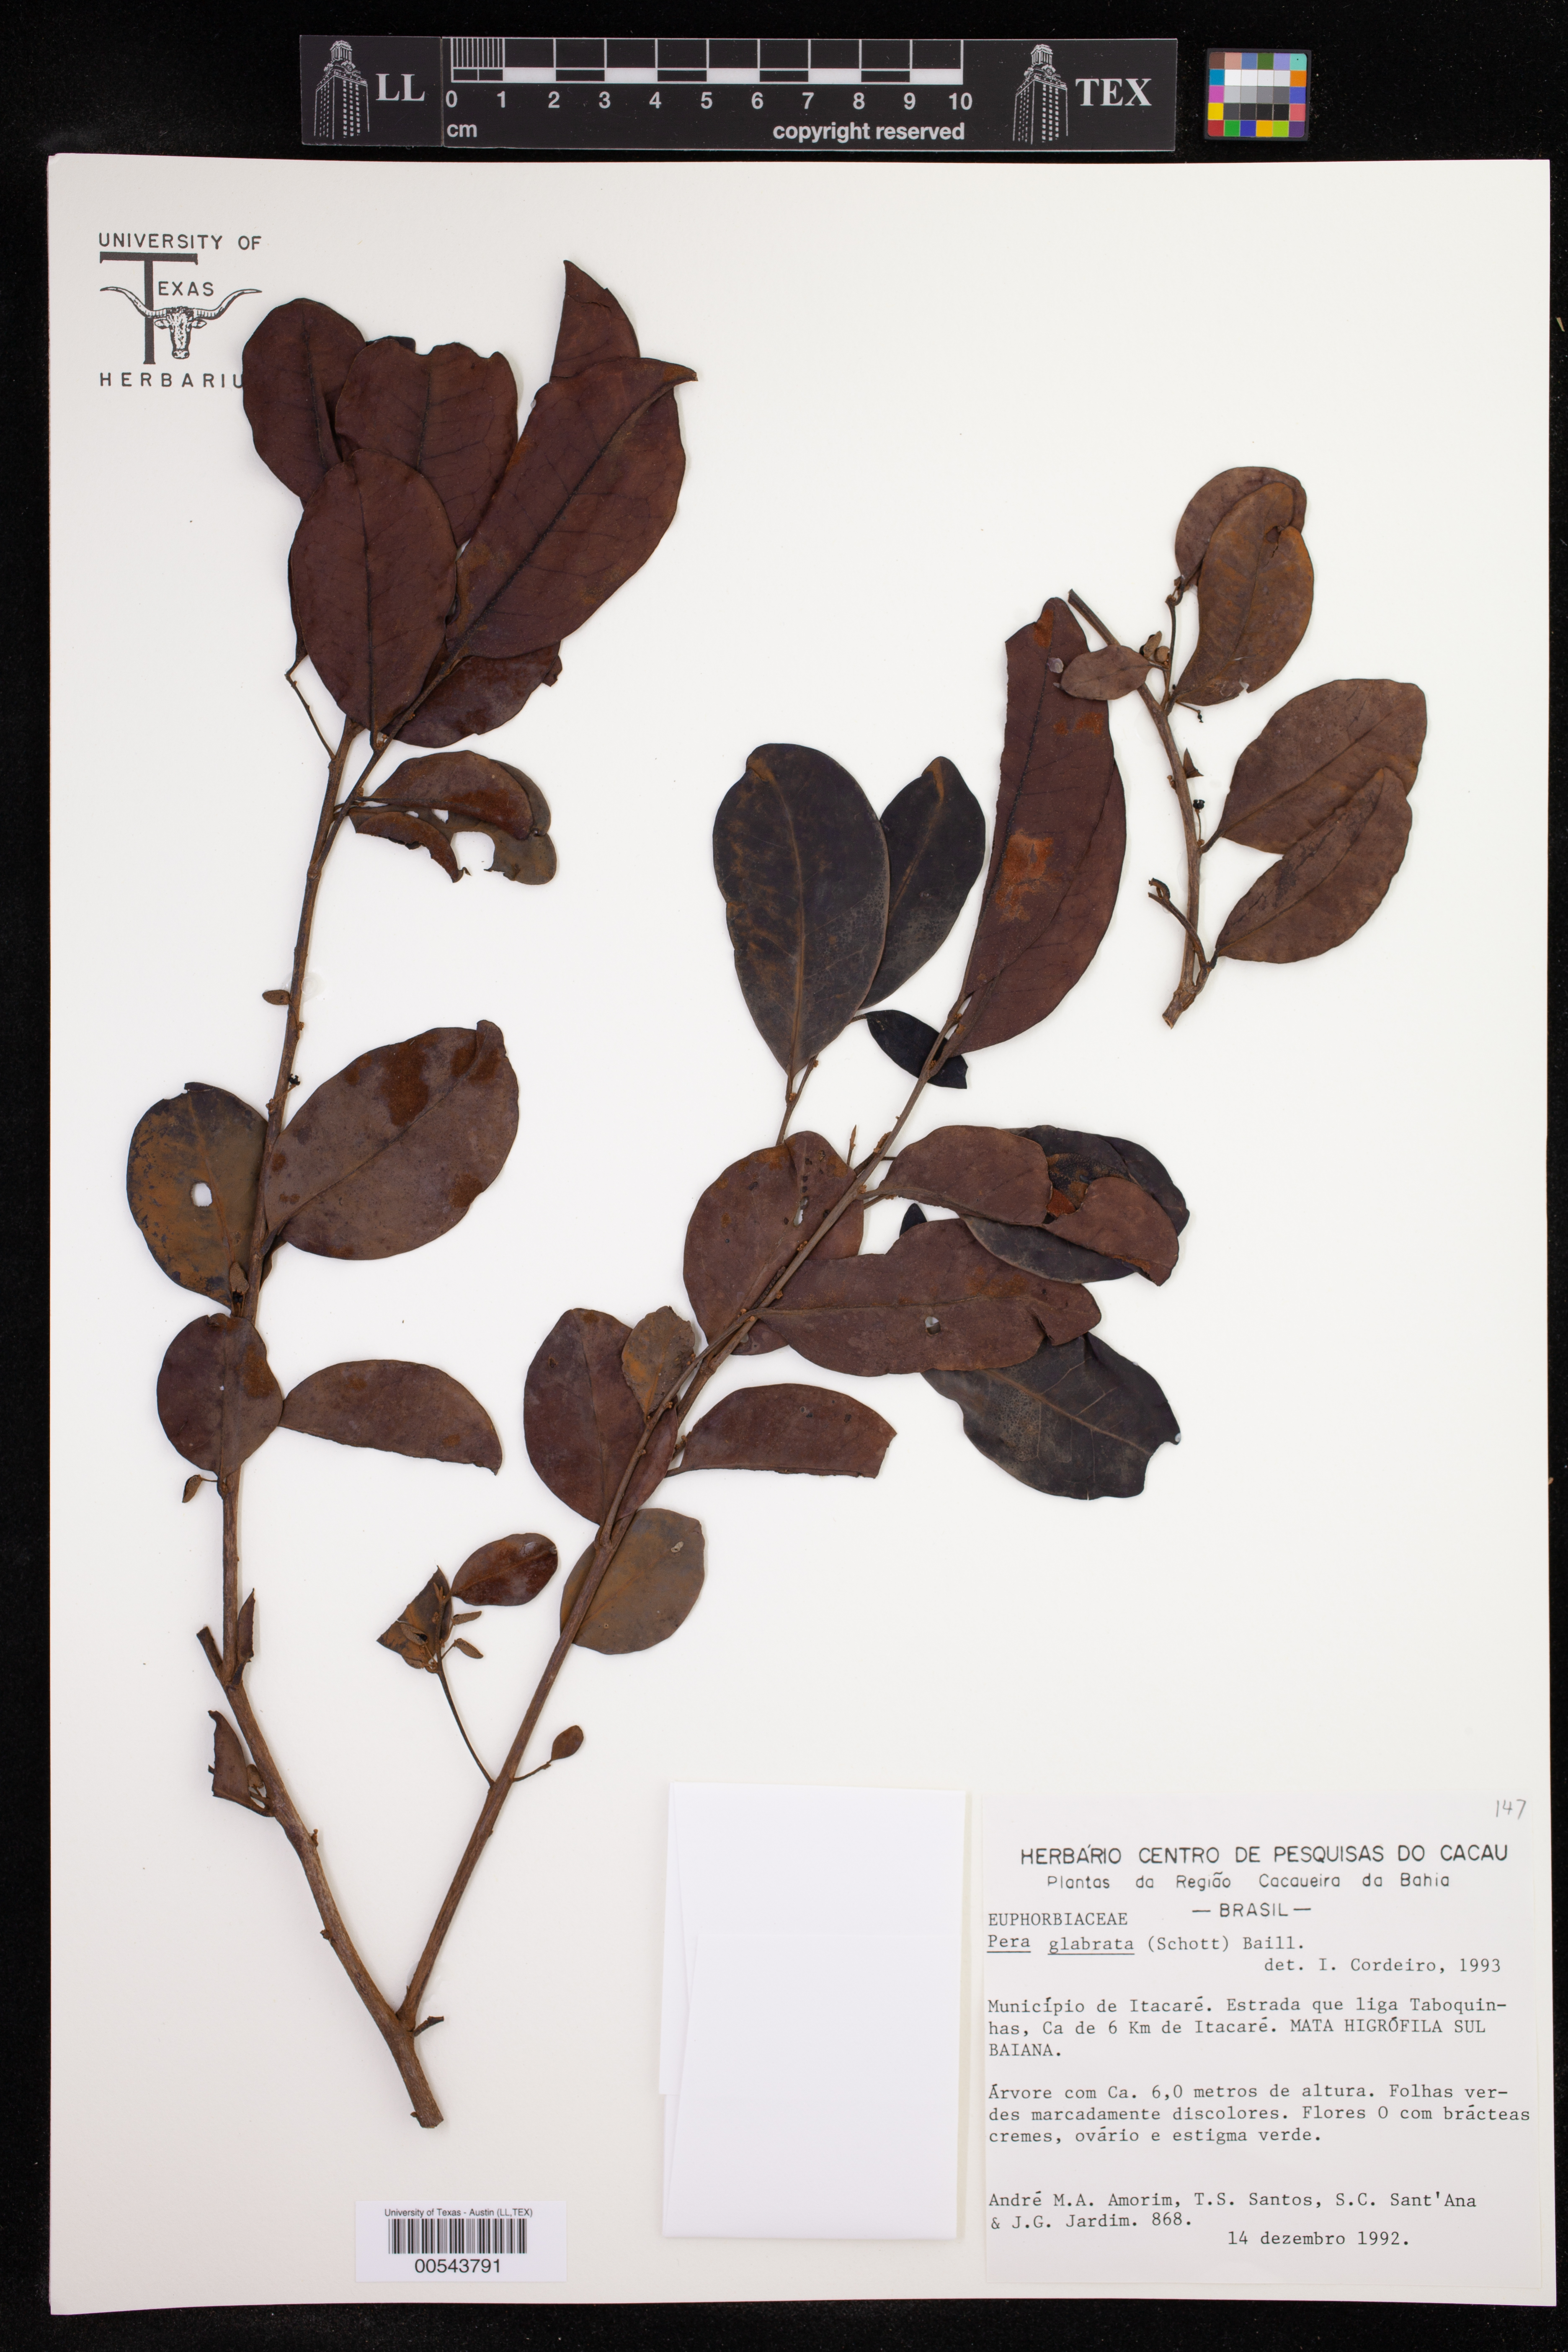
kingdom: Plantae
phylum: Tracheophyta
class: Magnoliopsida
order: Malpighiales
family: Peraceae
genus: Pera
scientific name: Pera glabrata
